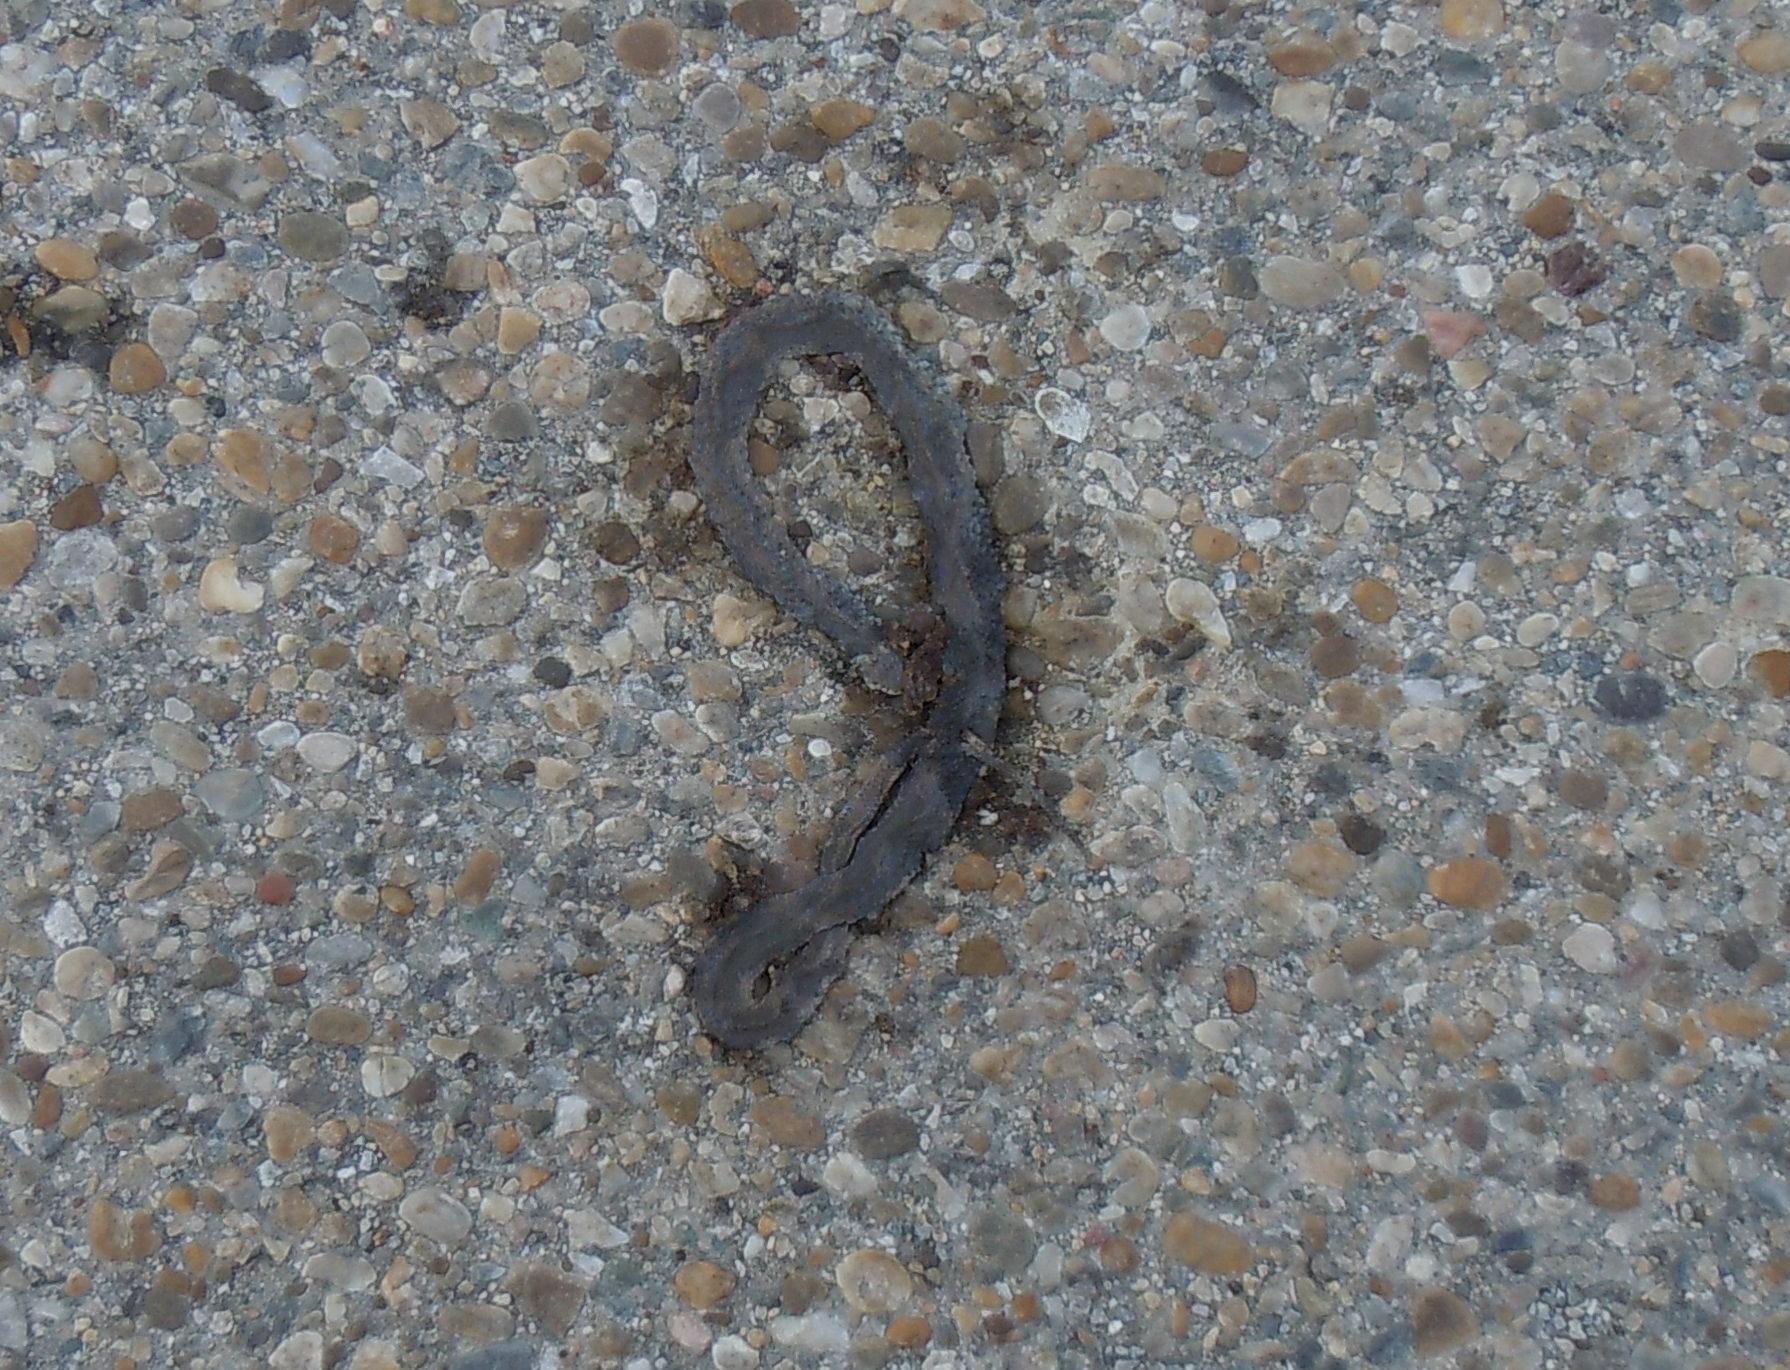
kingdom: Animalia
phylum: Chordata
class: Squamata
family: Colubridae
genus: Natrix
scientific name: Natrix natrix
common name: Grass snake
